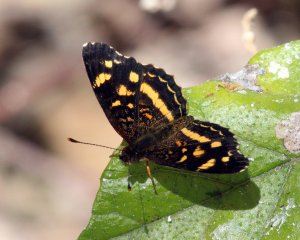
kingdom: Animalia
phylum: Arthropoda
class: Insecta
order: Lepidoptera
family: Nymphalidae
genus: Anthanassa
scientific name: Anthanassa ptolyca
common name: Black Crescent
